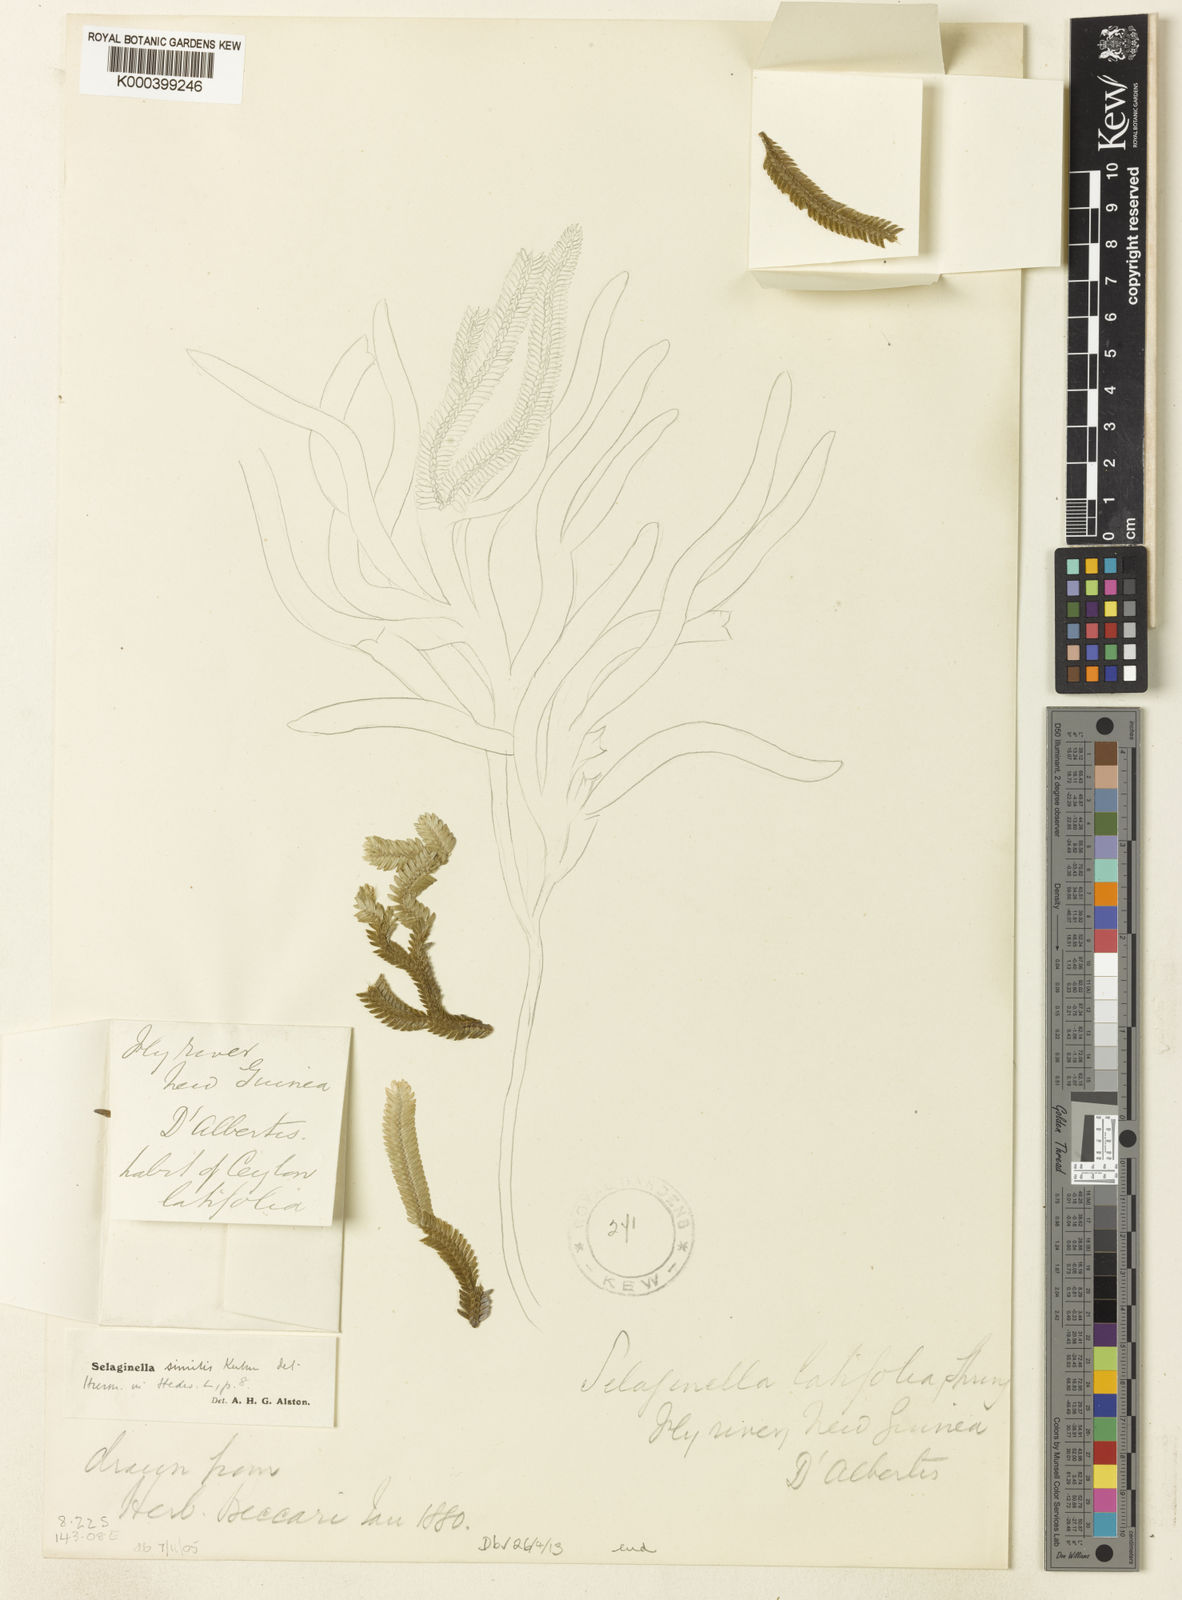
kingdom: Plantae
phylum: Tracheophyta
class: Lycopodiopsida
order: Selaginellales
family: Selaginellaceae
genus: Selaginella
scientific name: Selaginella
